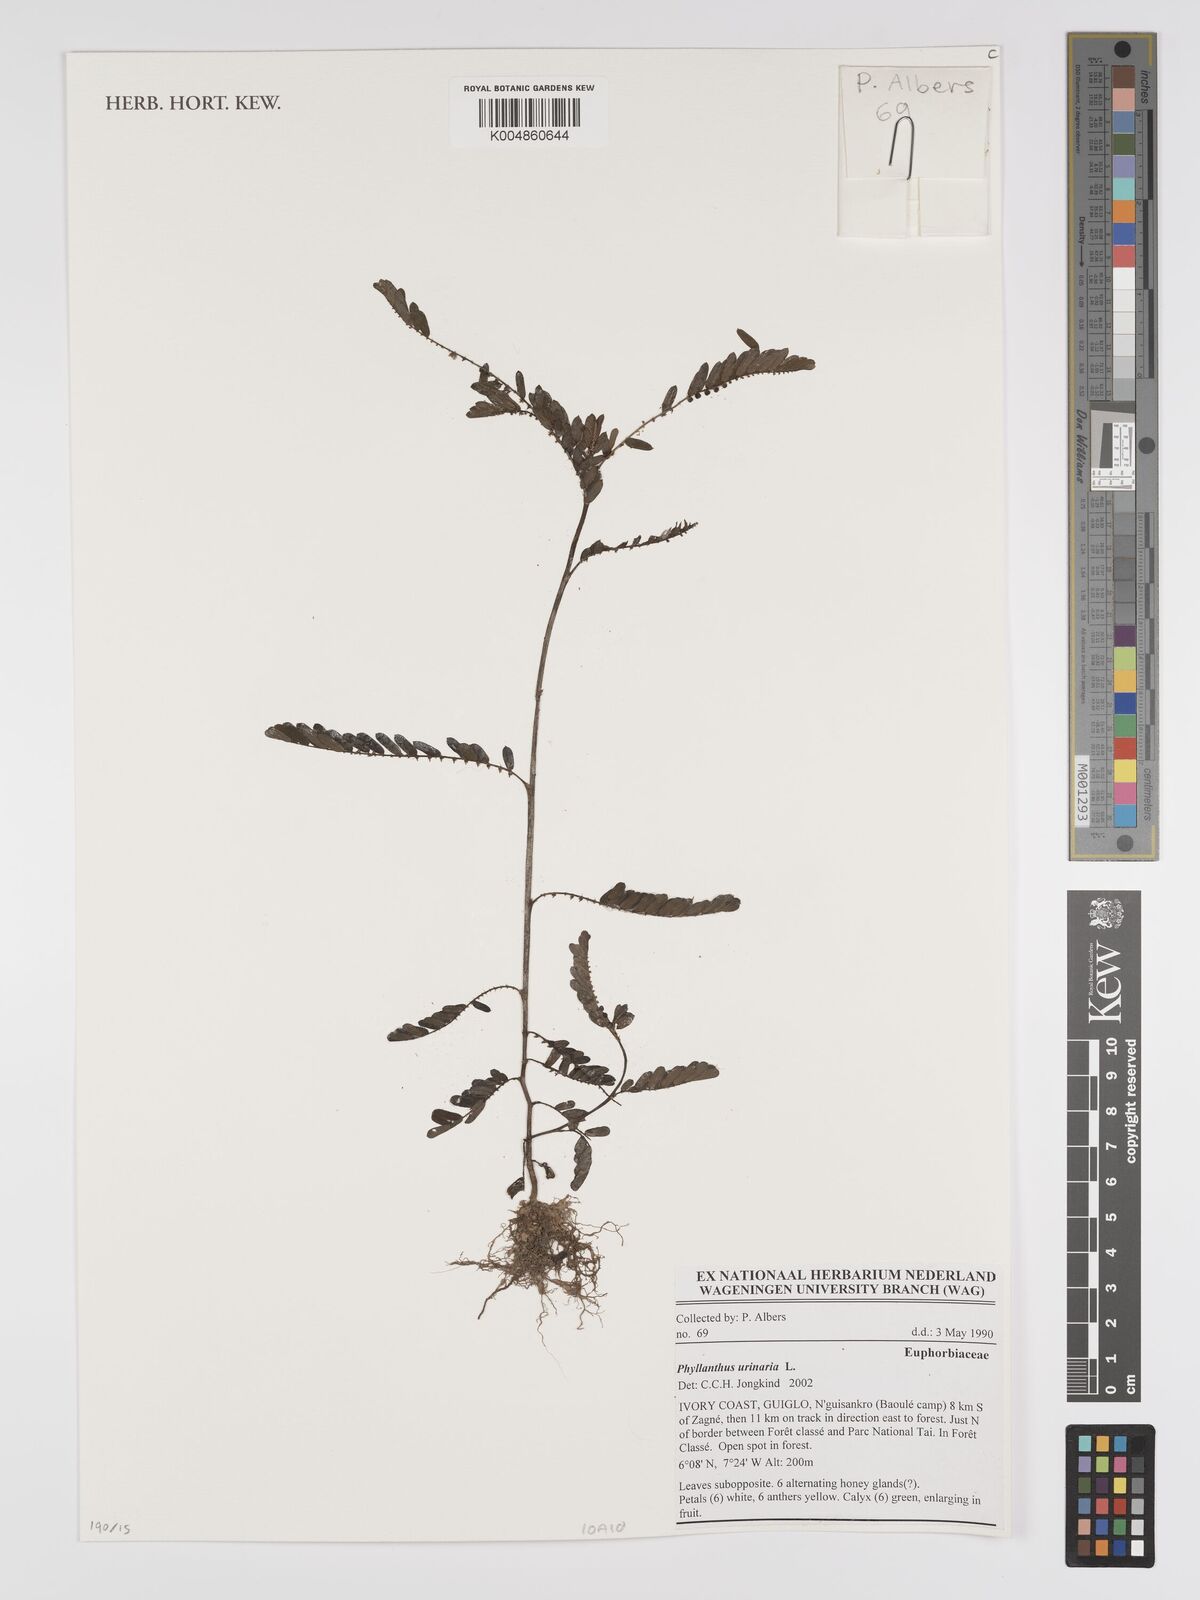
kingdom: Plantae
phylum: Tracheophyta
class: Magnoliopsida
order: Malpighiales
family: Phyllanthaceae
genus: Phyllanthus
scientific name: Phyllanthus urinaria
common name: Chamber bitter
